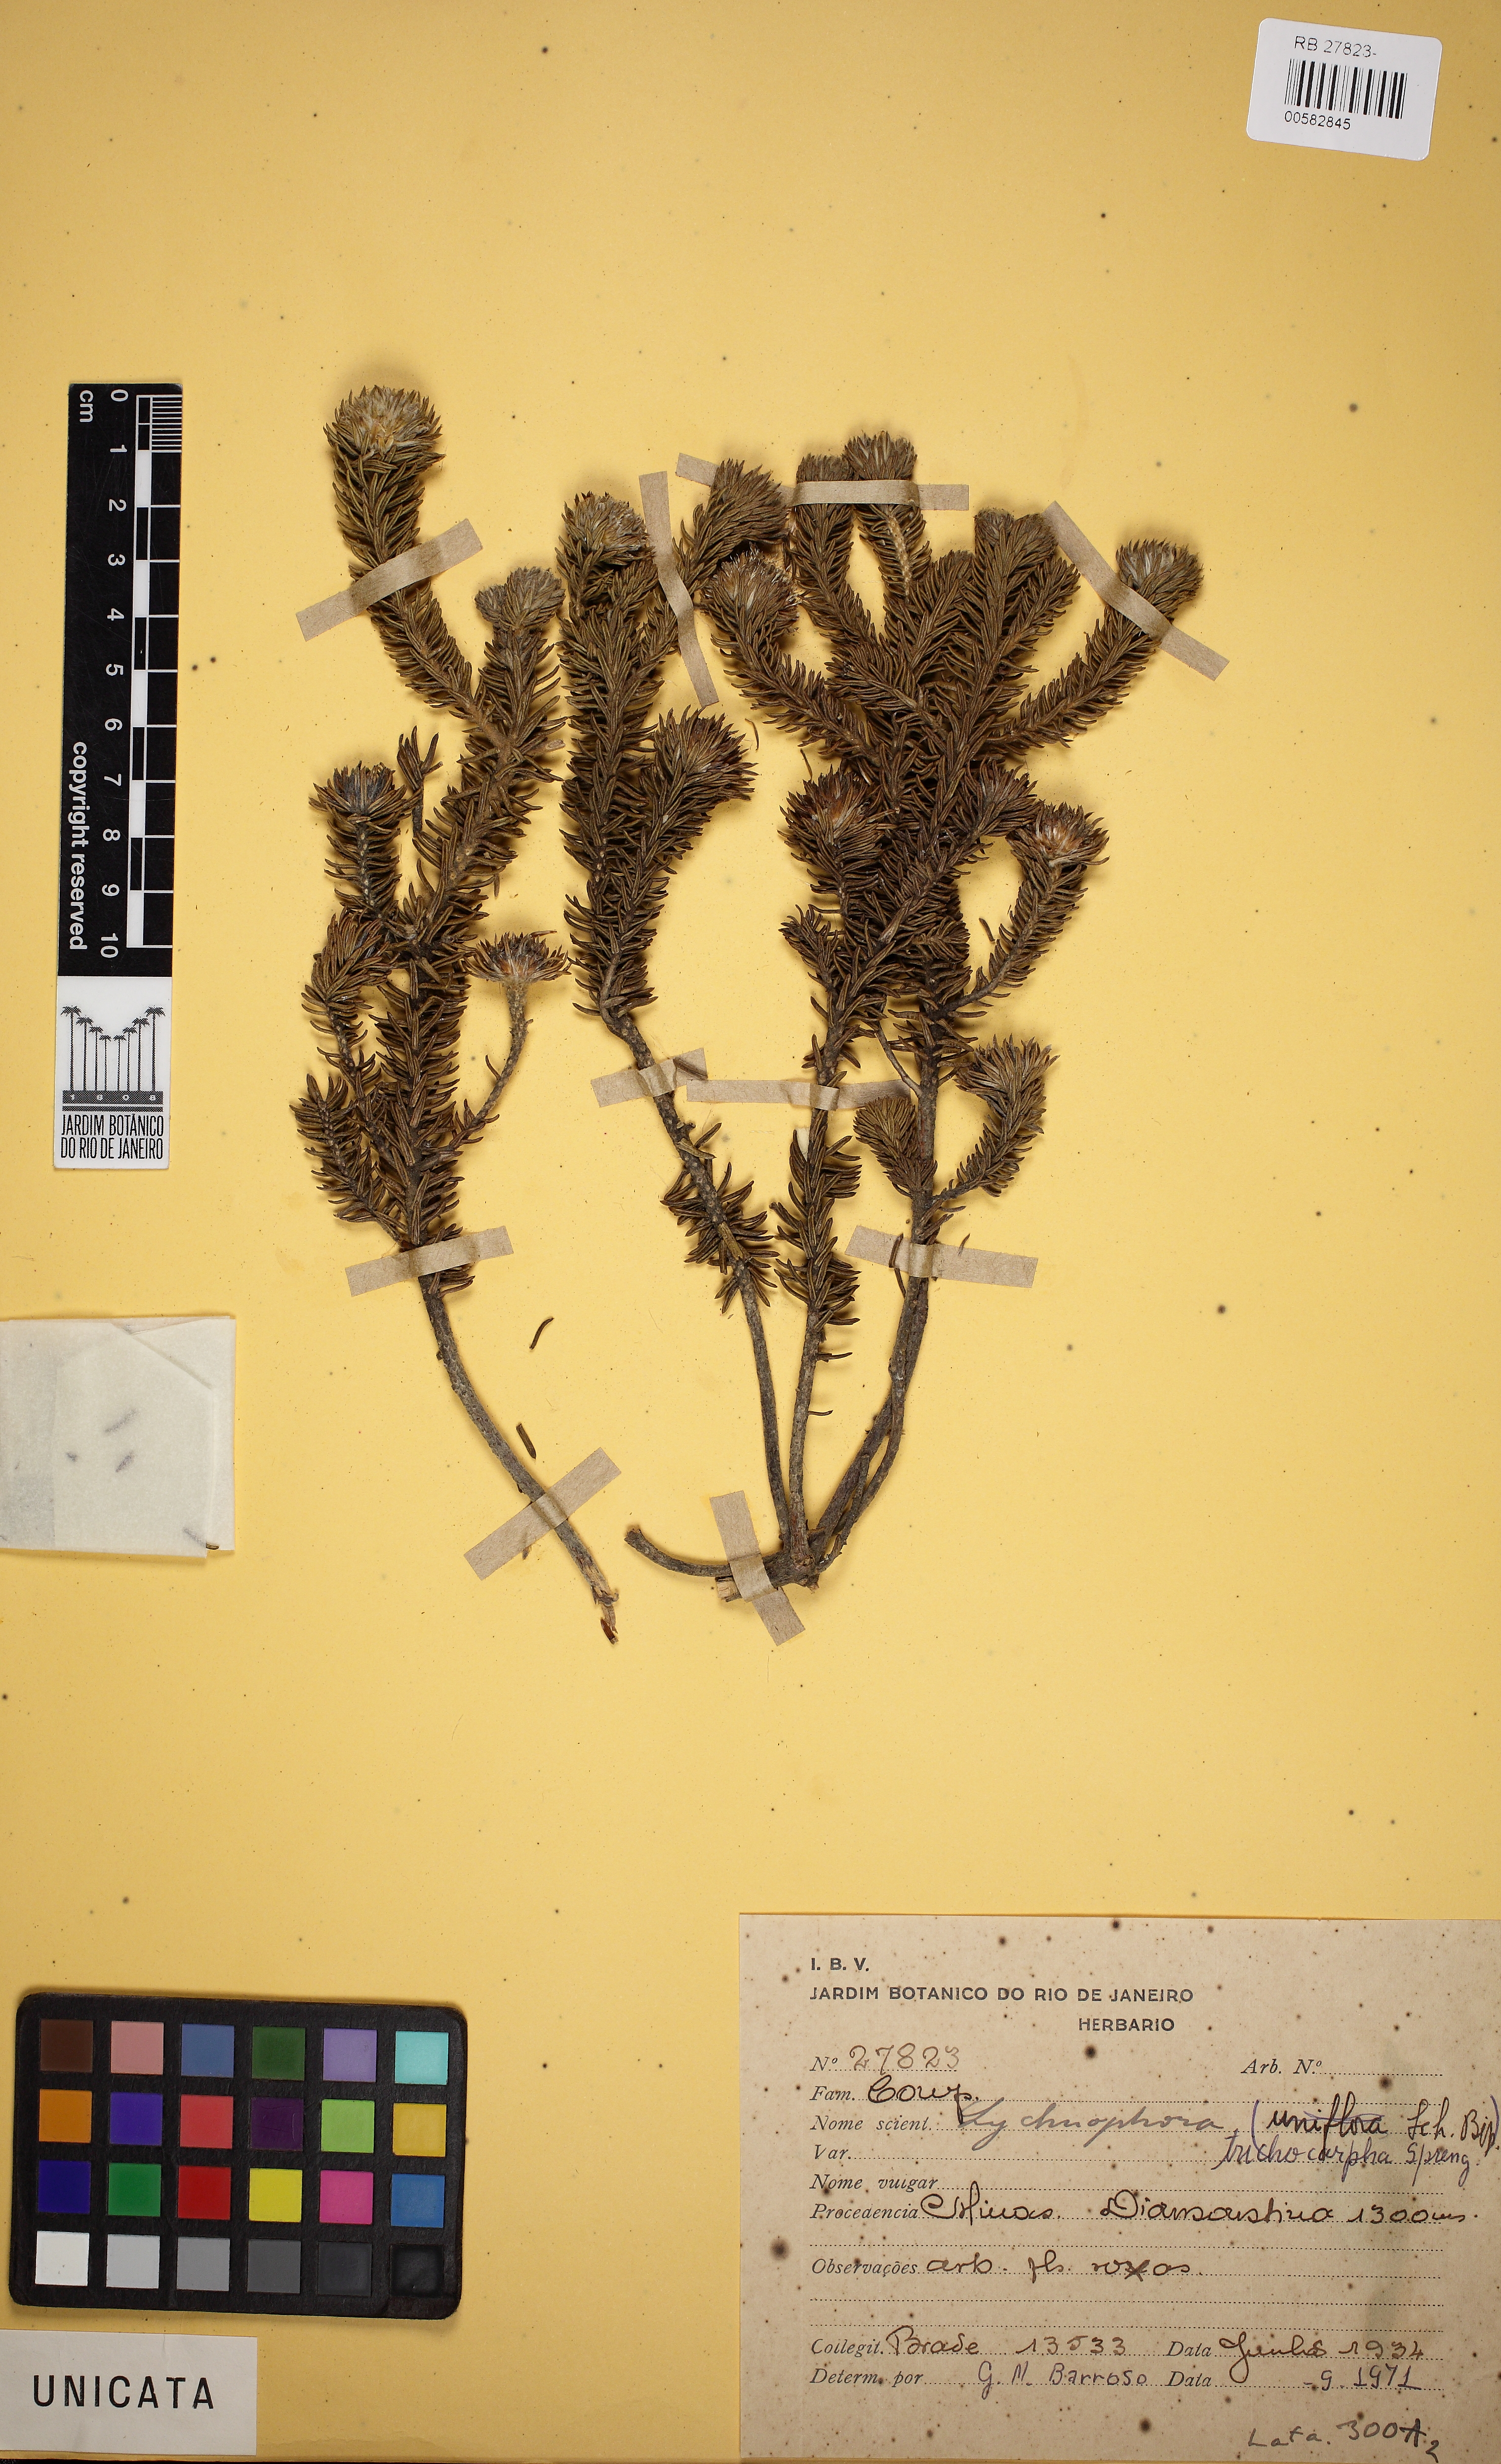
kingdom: Plantae
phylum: Tracheophyta
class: Magnoliopsida
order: Asterales
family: Asteraceae
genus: Lychnophora
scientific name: Lychnophora
